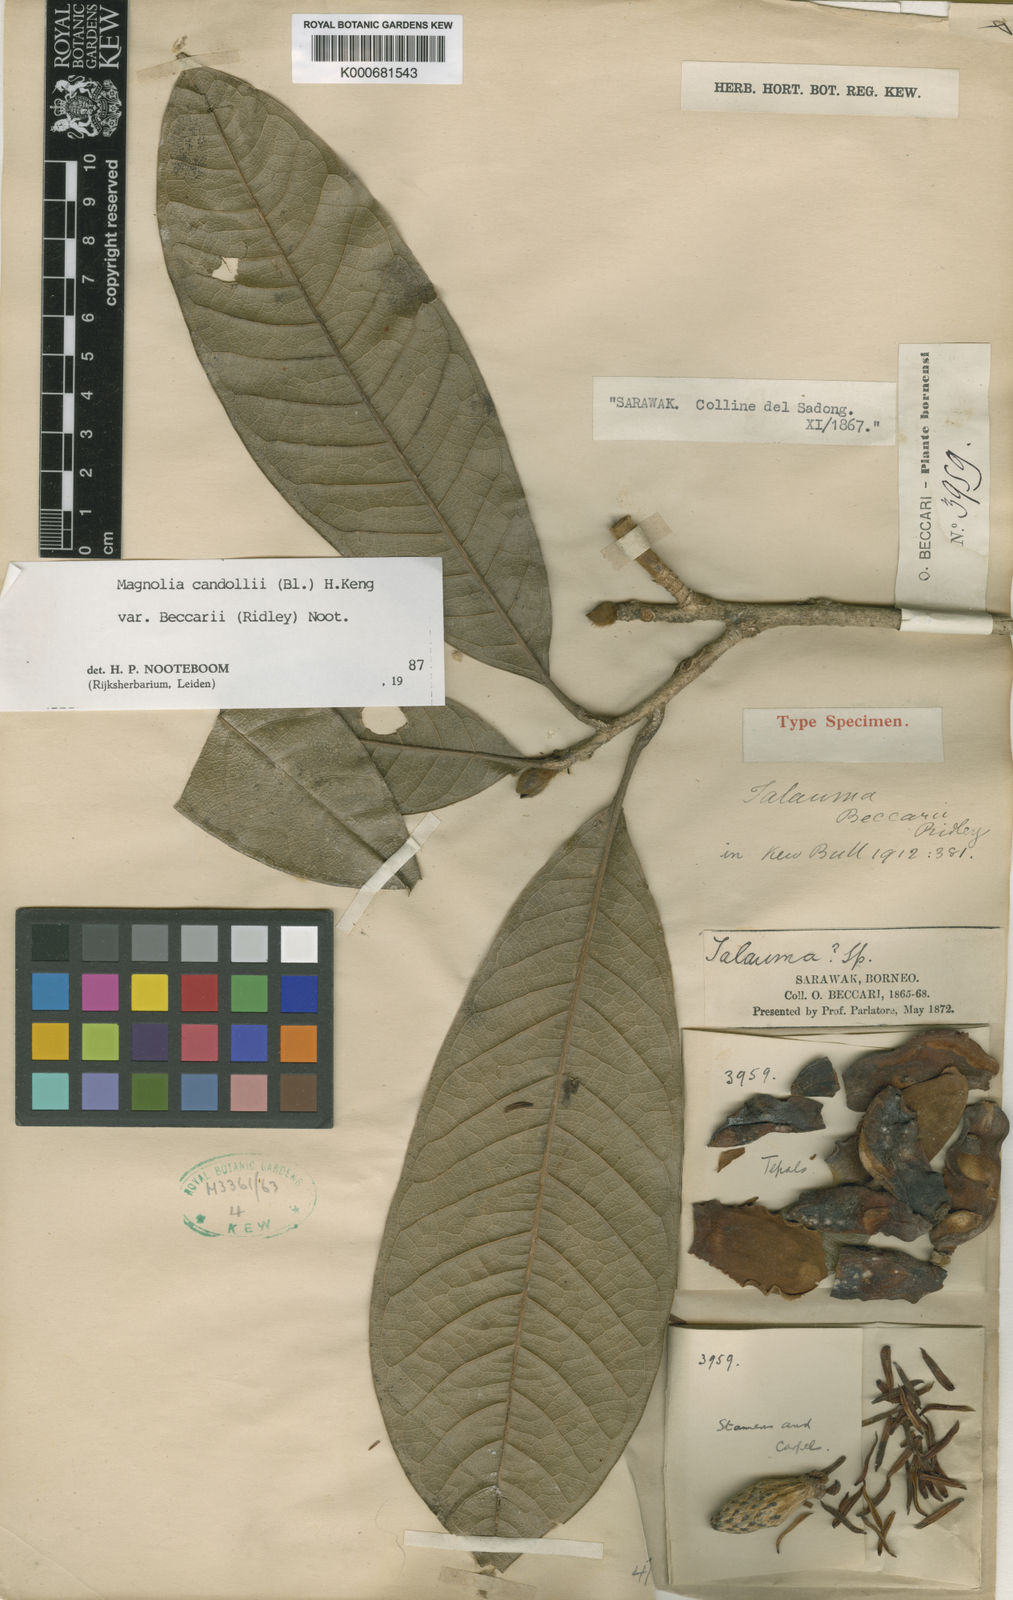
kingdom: Plantae
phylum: Tracheophyta
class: Magnoliopsida
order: Magnoliales
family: Magnoliaceae
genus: Magnolia
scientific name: Magnolia beccarii
